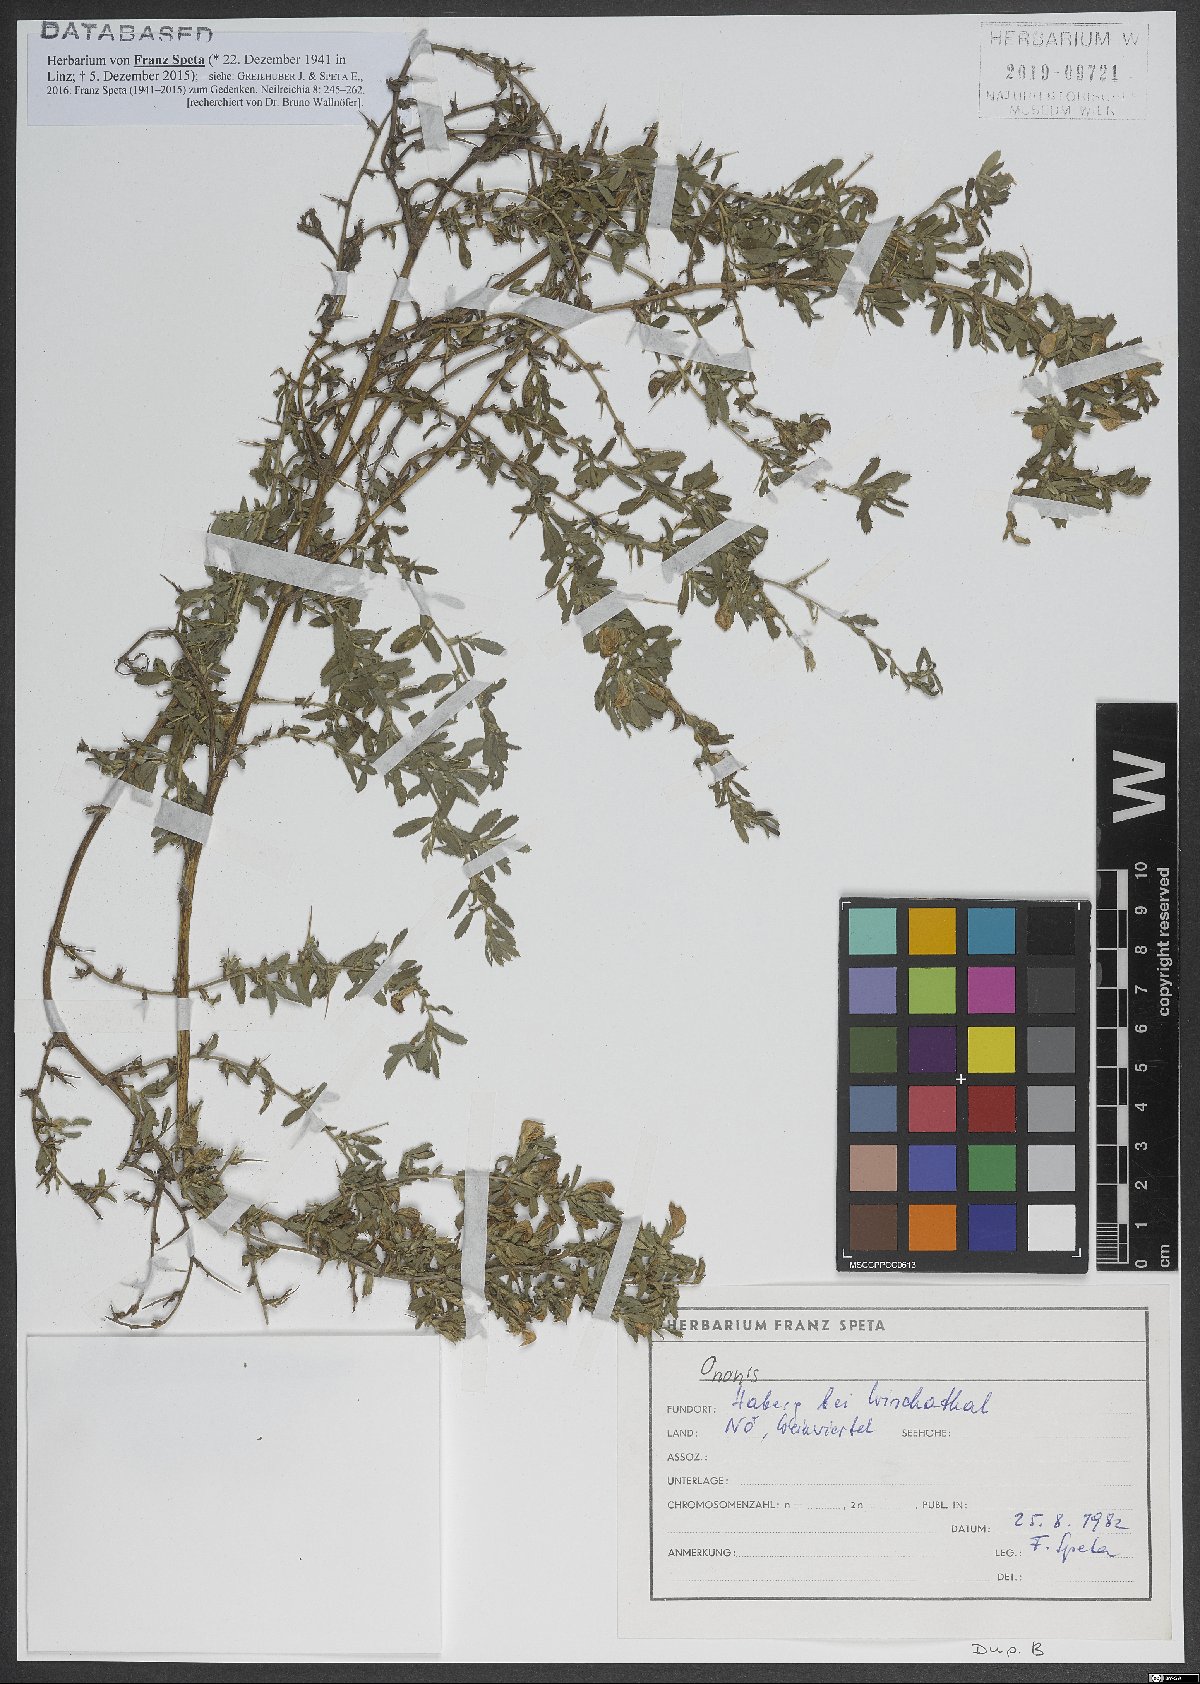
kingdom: Plantae
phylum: Tracheophyta
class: Magnoliopsida
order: Fabales
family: Fabaceae
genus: Ononis
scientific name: Ononis
